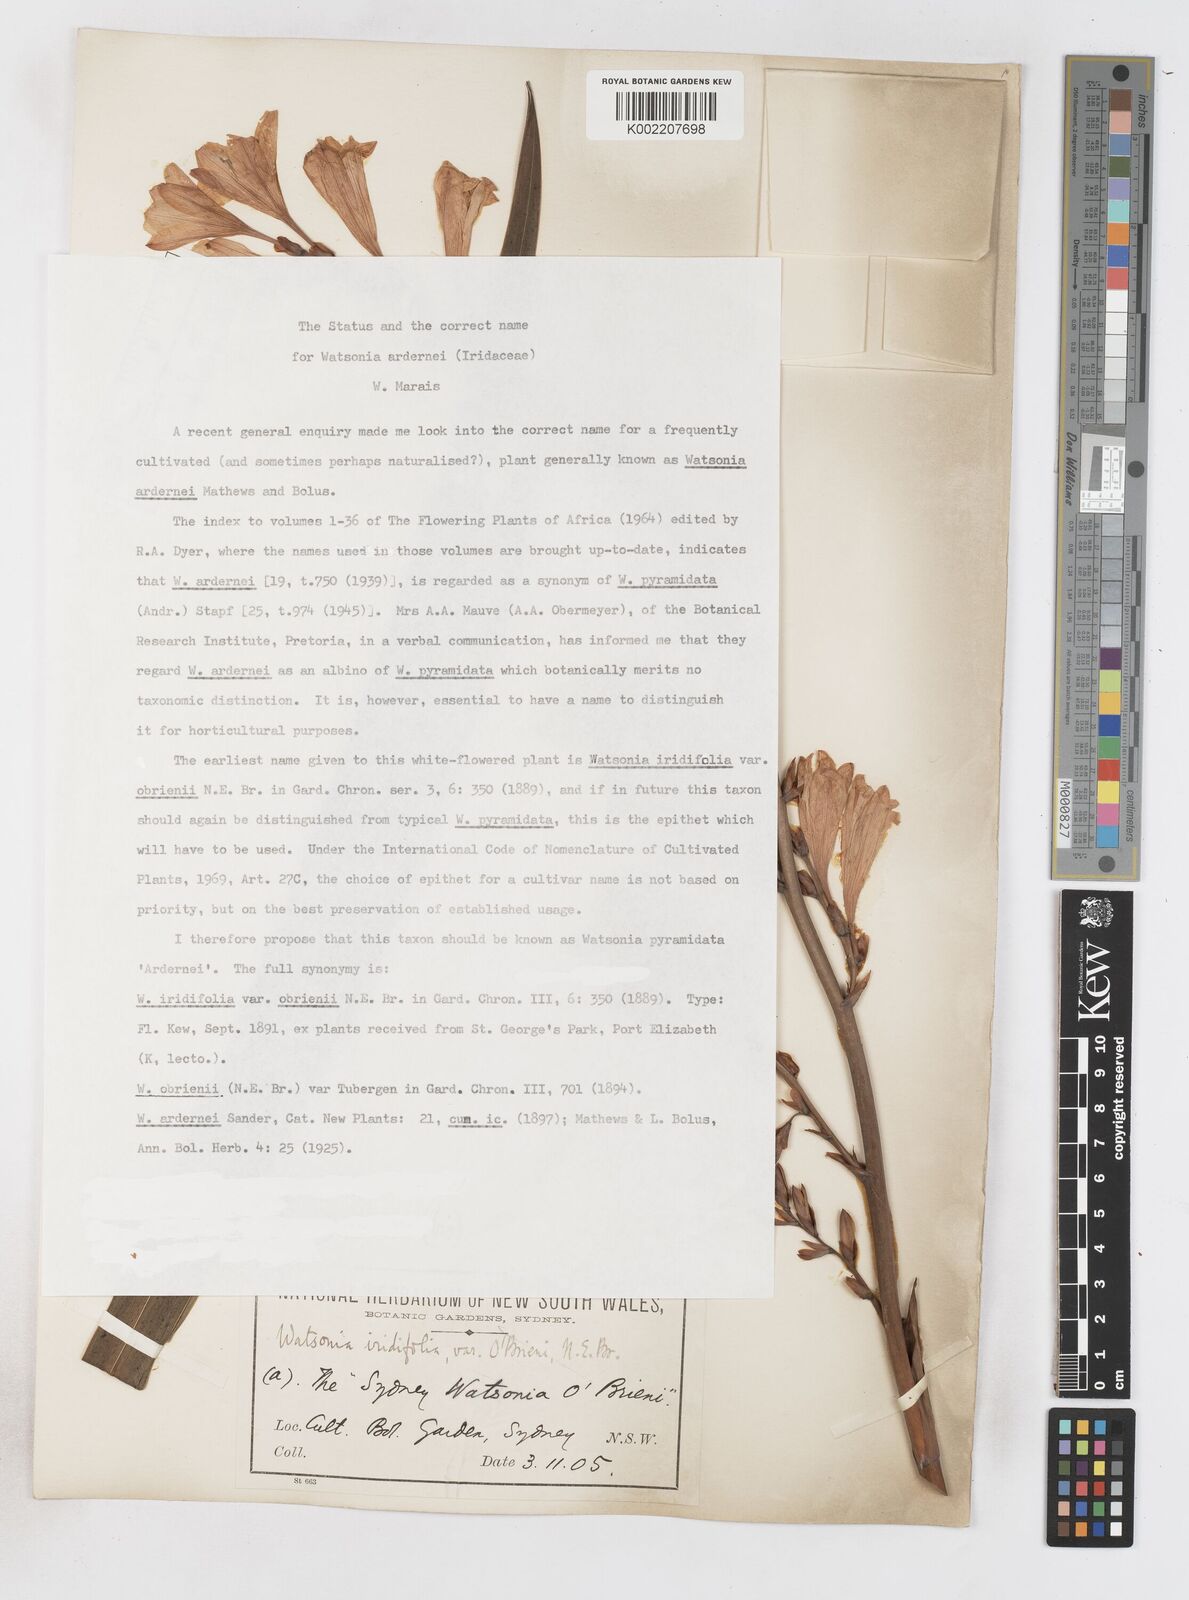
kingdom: Plantae
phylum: Tracheophyta
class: Liliopsida
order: Asparagales
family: Iridaceae
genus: Watsonia
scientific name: Watsonia borbonica
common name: Bugle-lily
